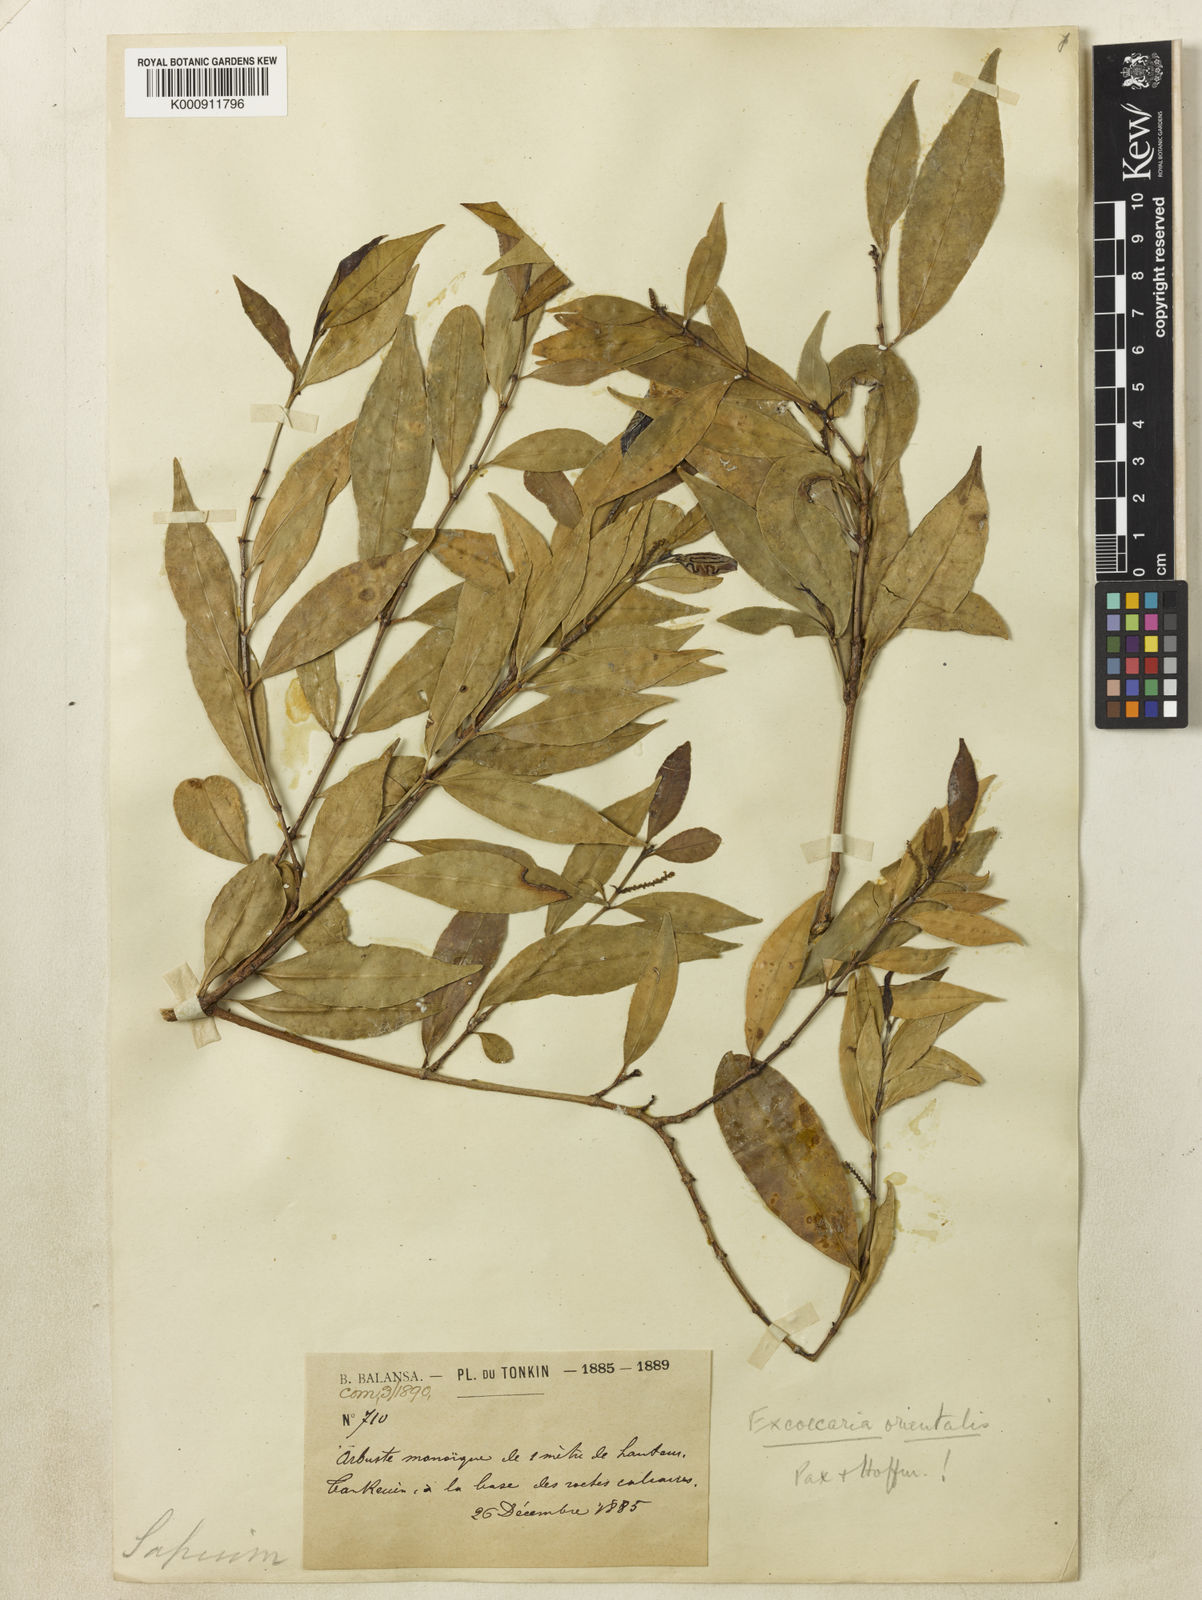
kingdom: Plantae
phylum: Tracheophyta
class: Magnoliopsida
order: Malpighiales
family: Euphorbiaceae
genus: Excoecaria
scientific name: Excoecaria cochinchinensis
